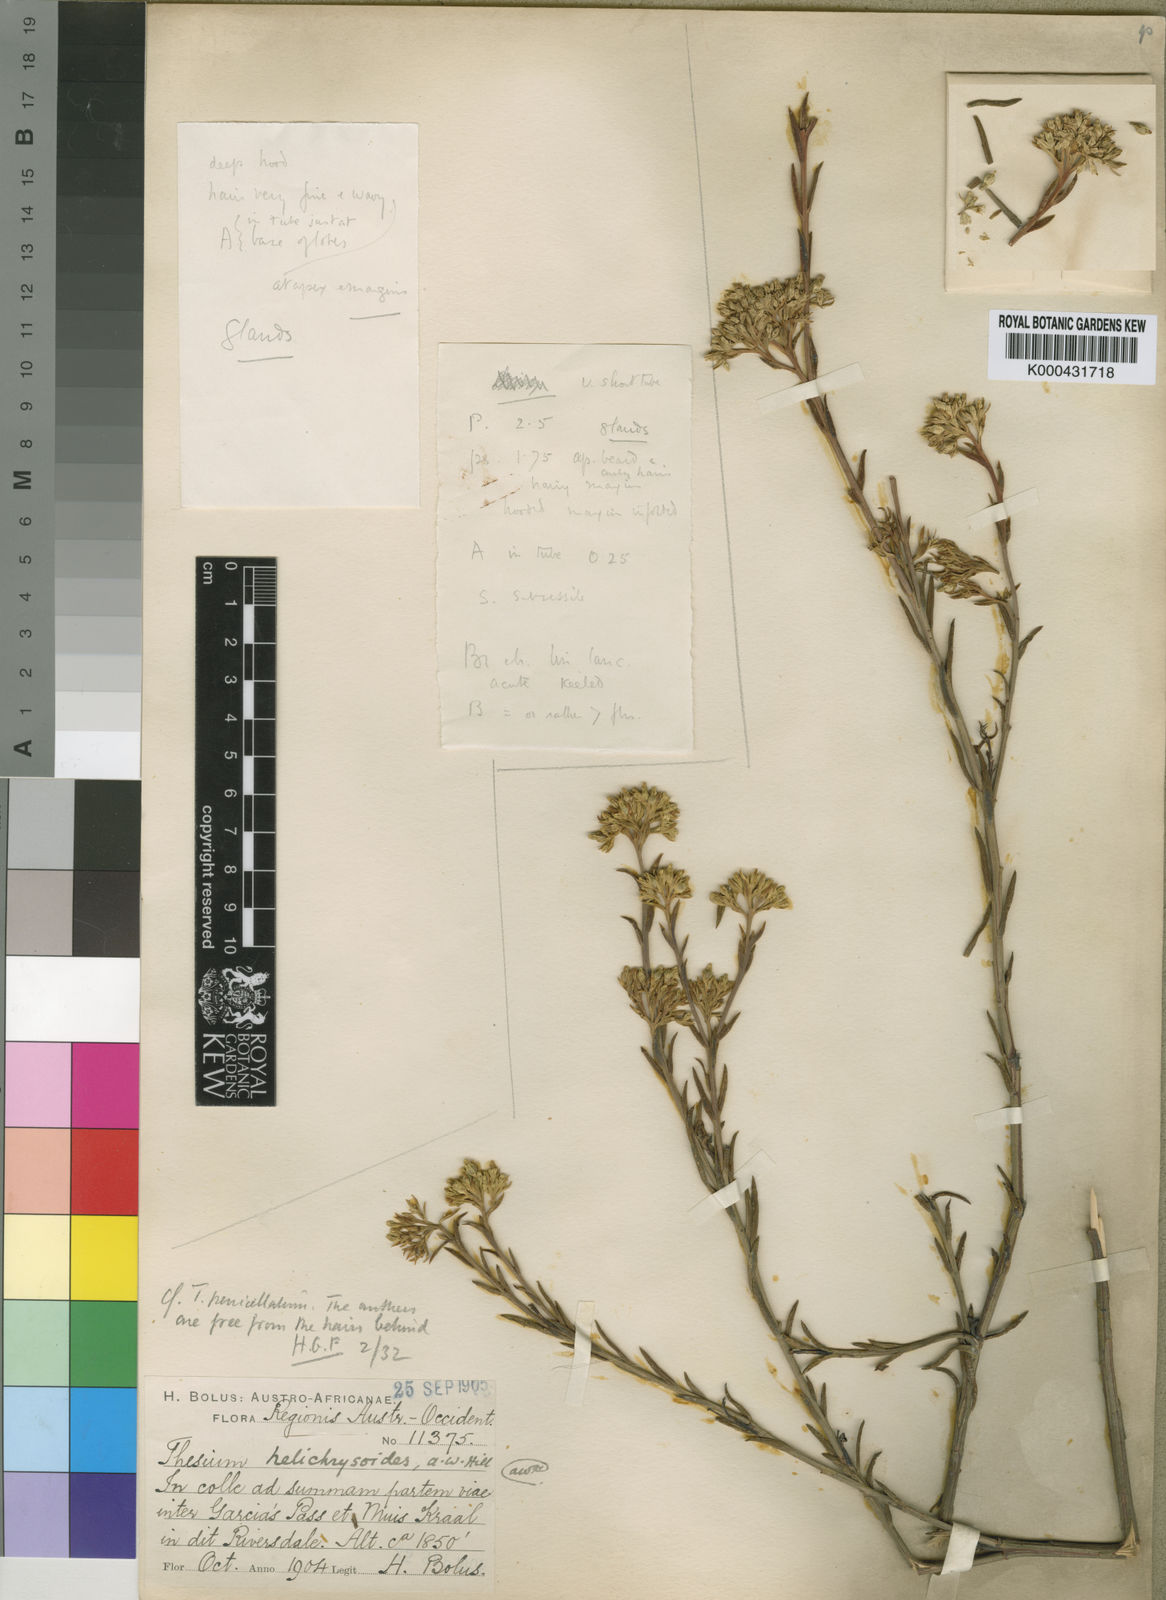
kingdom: Plantae
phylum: Tracheophyta
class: Magnoliopsida
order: Santalales
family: Thesiaceae
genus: Thesium
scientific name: Thesium helichrysoides
